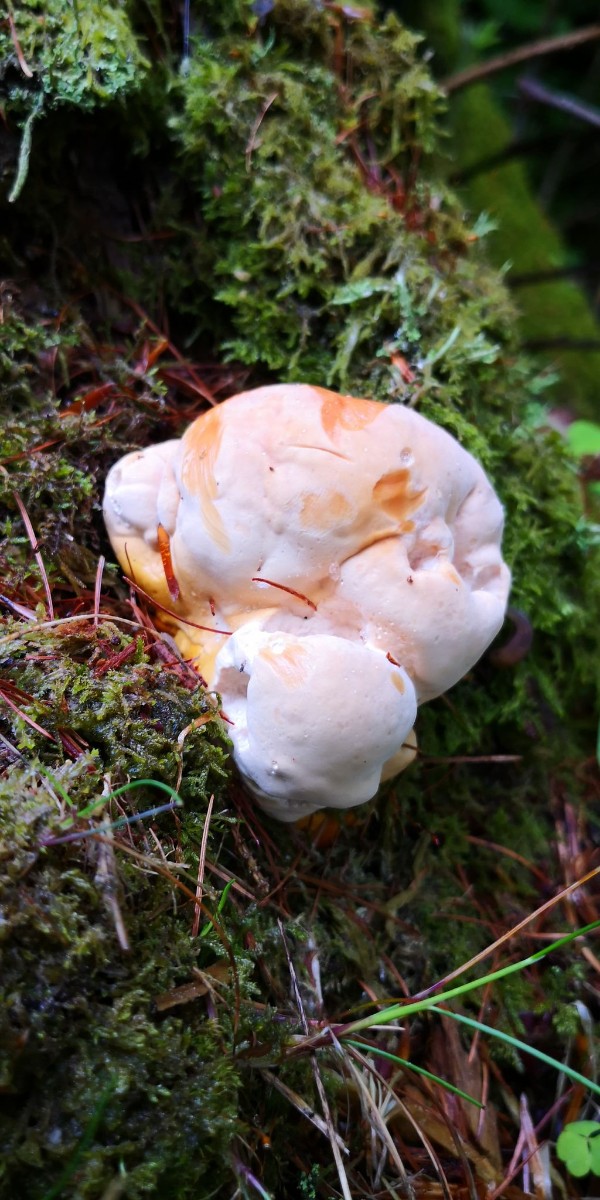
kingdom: Fungi
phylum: Basidiomycota
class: Agaricomycetes
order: Polyporales
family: Fomitopsidaceae
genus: Fomitopsis
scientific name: Fomitopsis pinicola
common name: randbæltet hovporesvamp
